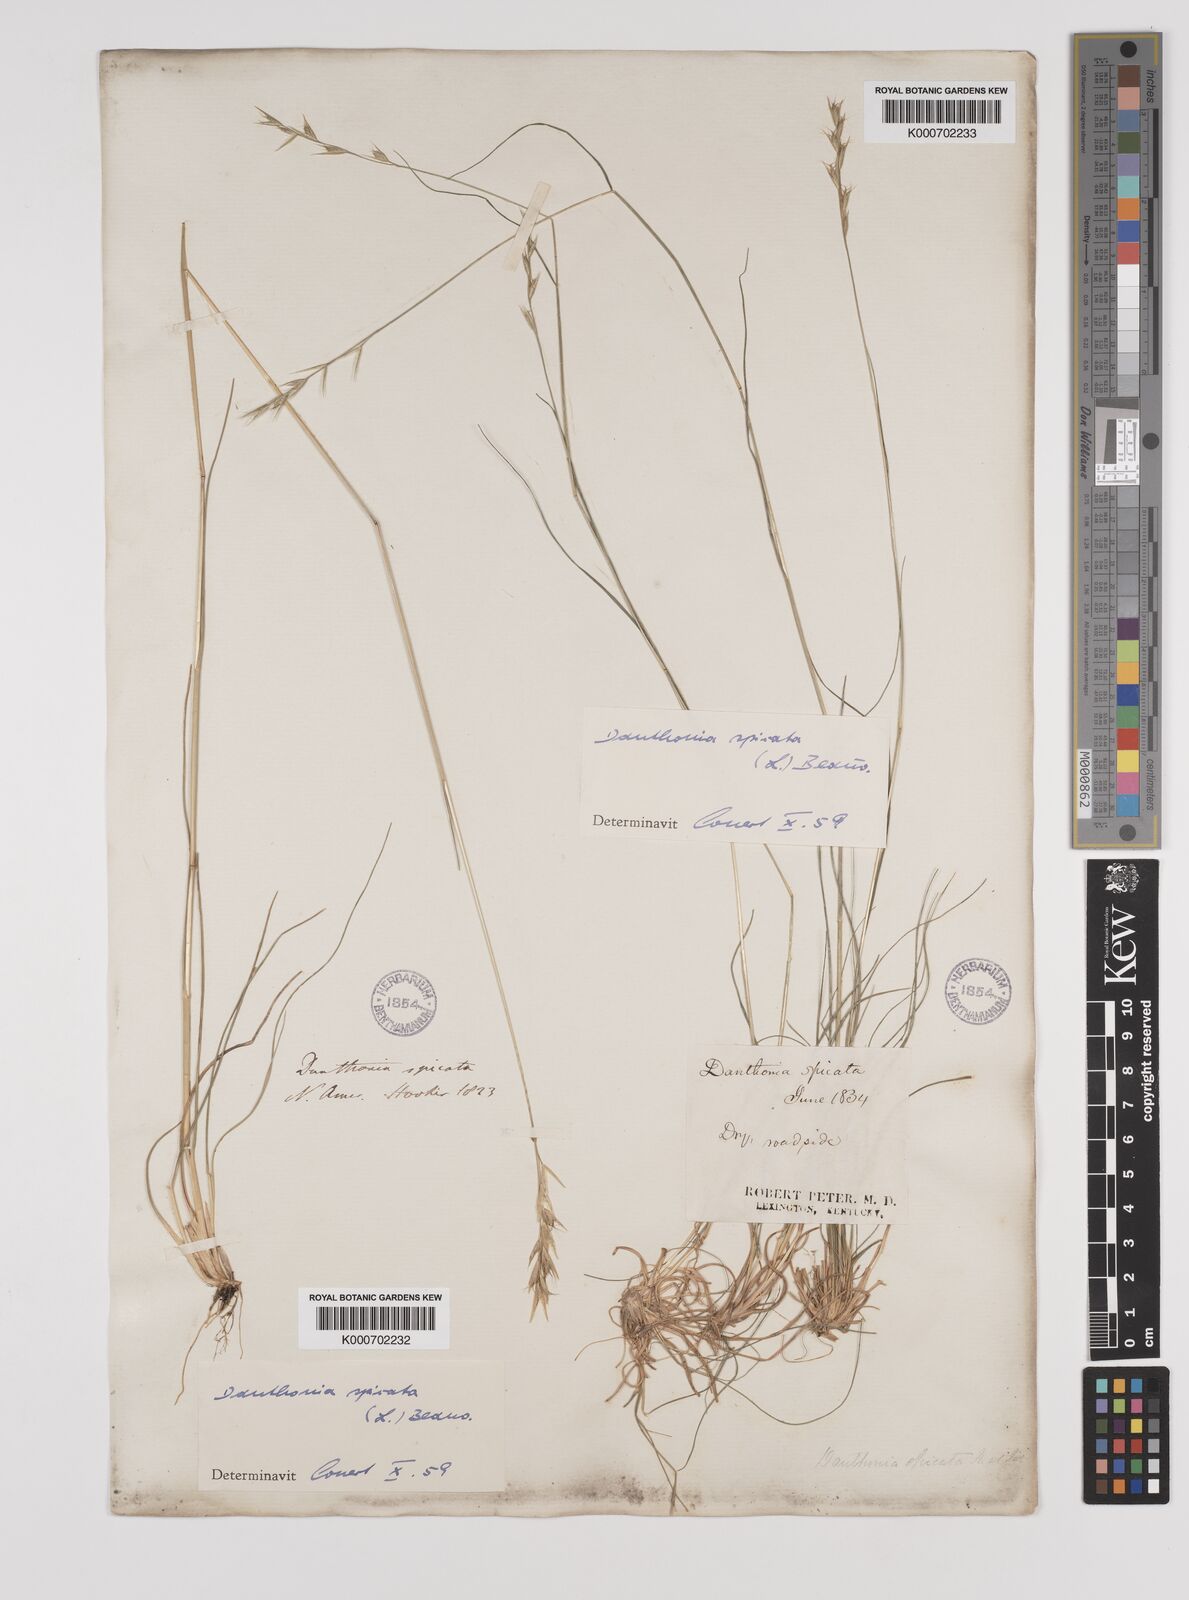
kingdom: Plantae
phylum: Tracheophyta
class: Liliopsida
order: Poales
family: Poaceae
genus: Danthonia
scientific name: Danthonia spicata
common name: Common wild oatgrass
